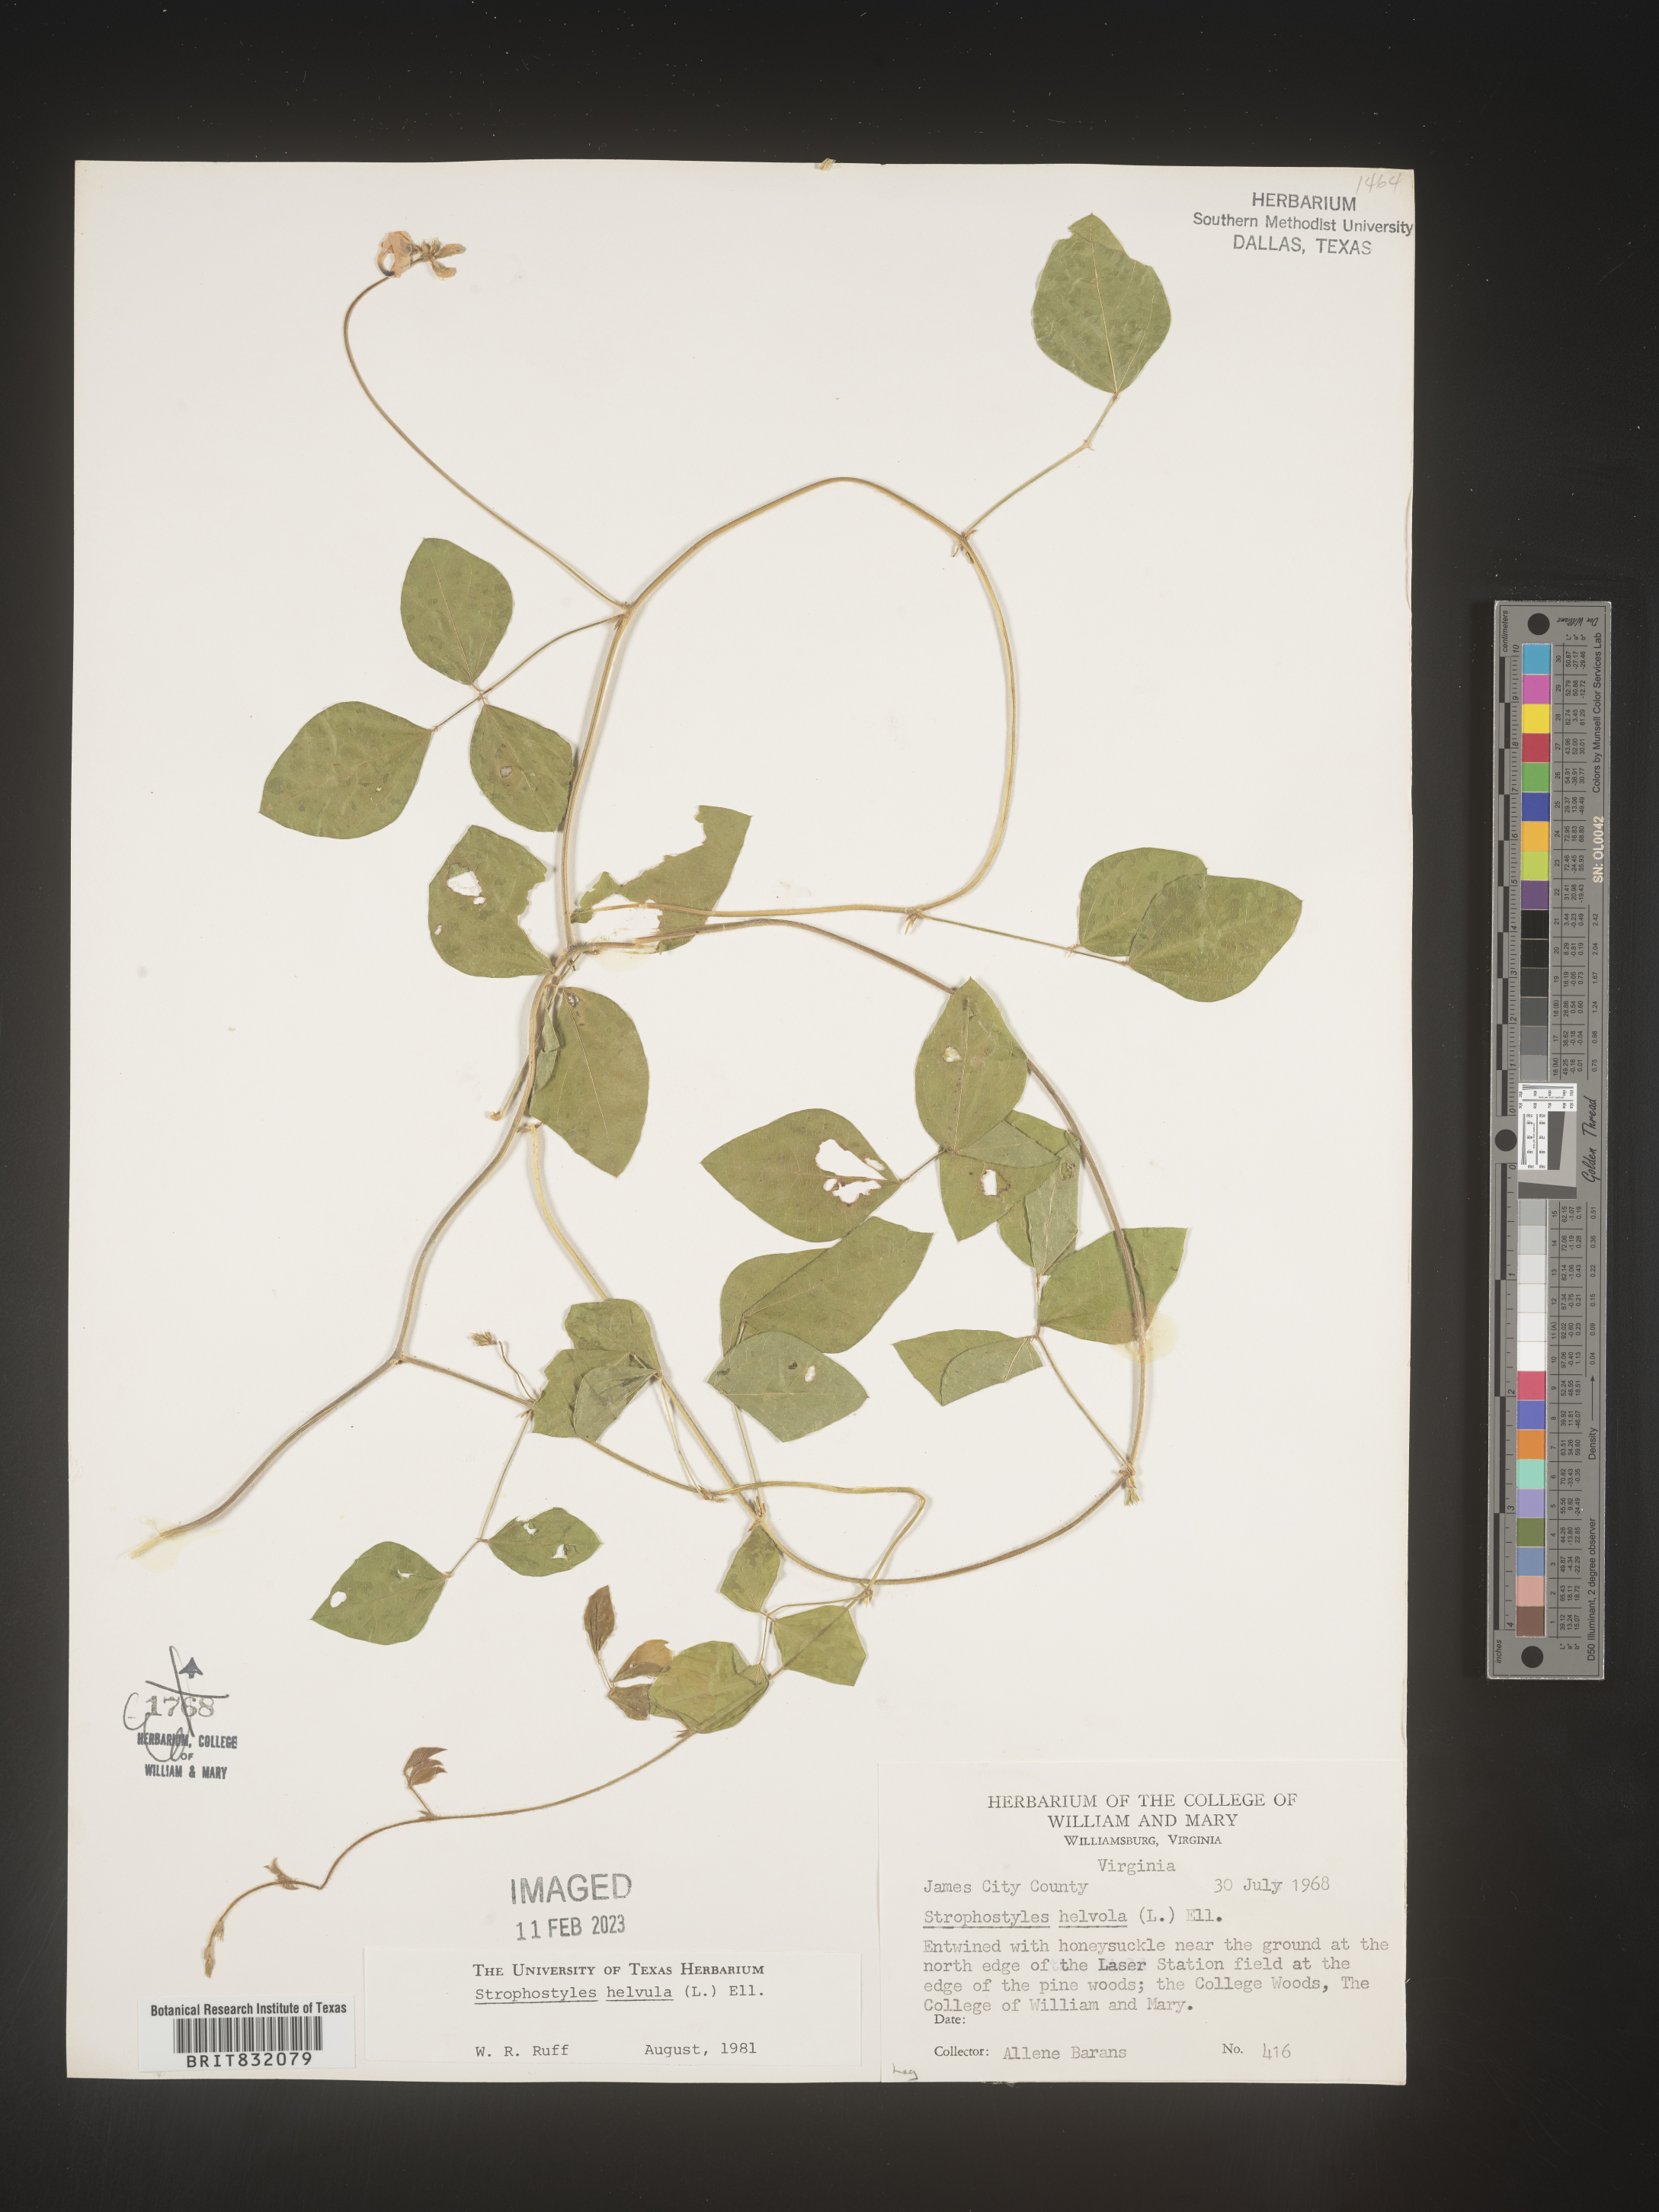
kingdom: Plantae
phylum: Tracheophyta
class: Magnoliopsida
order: Fabales
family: Fabaceae
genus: Strophostyles
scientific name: Strophostyles helvola
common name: Trailing wild bean
